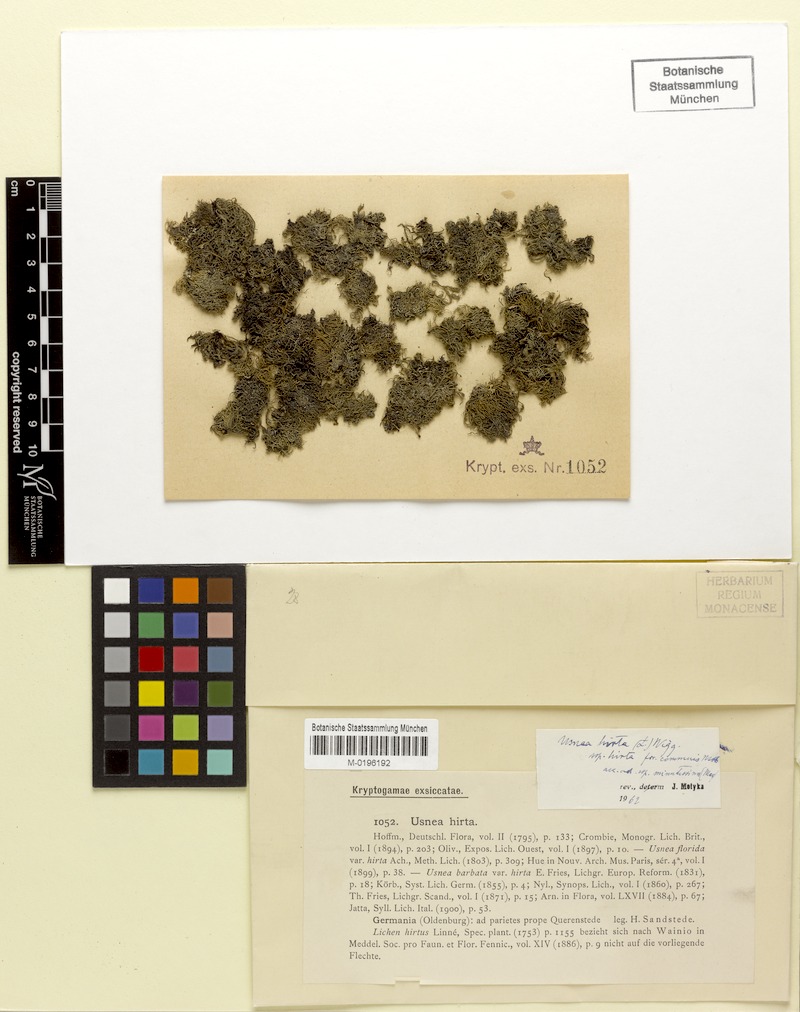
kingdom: Fungi
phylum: Ascomycota
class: Lecanoromycetes
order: Lecanorales
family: Parmeliaceae
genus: Usnea
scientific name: Usnea hirta
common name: Bristly beard lichen
